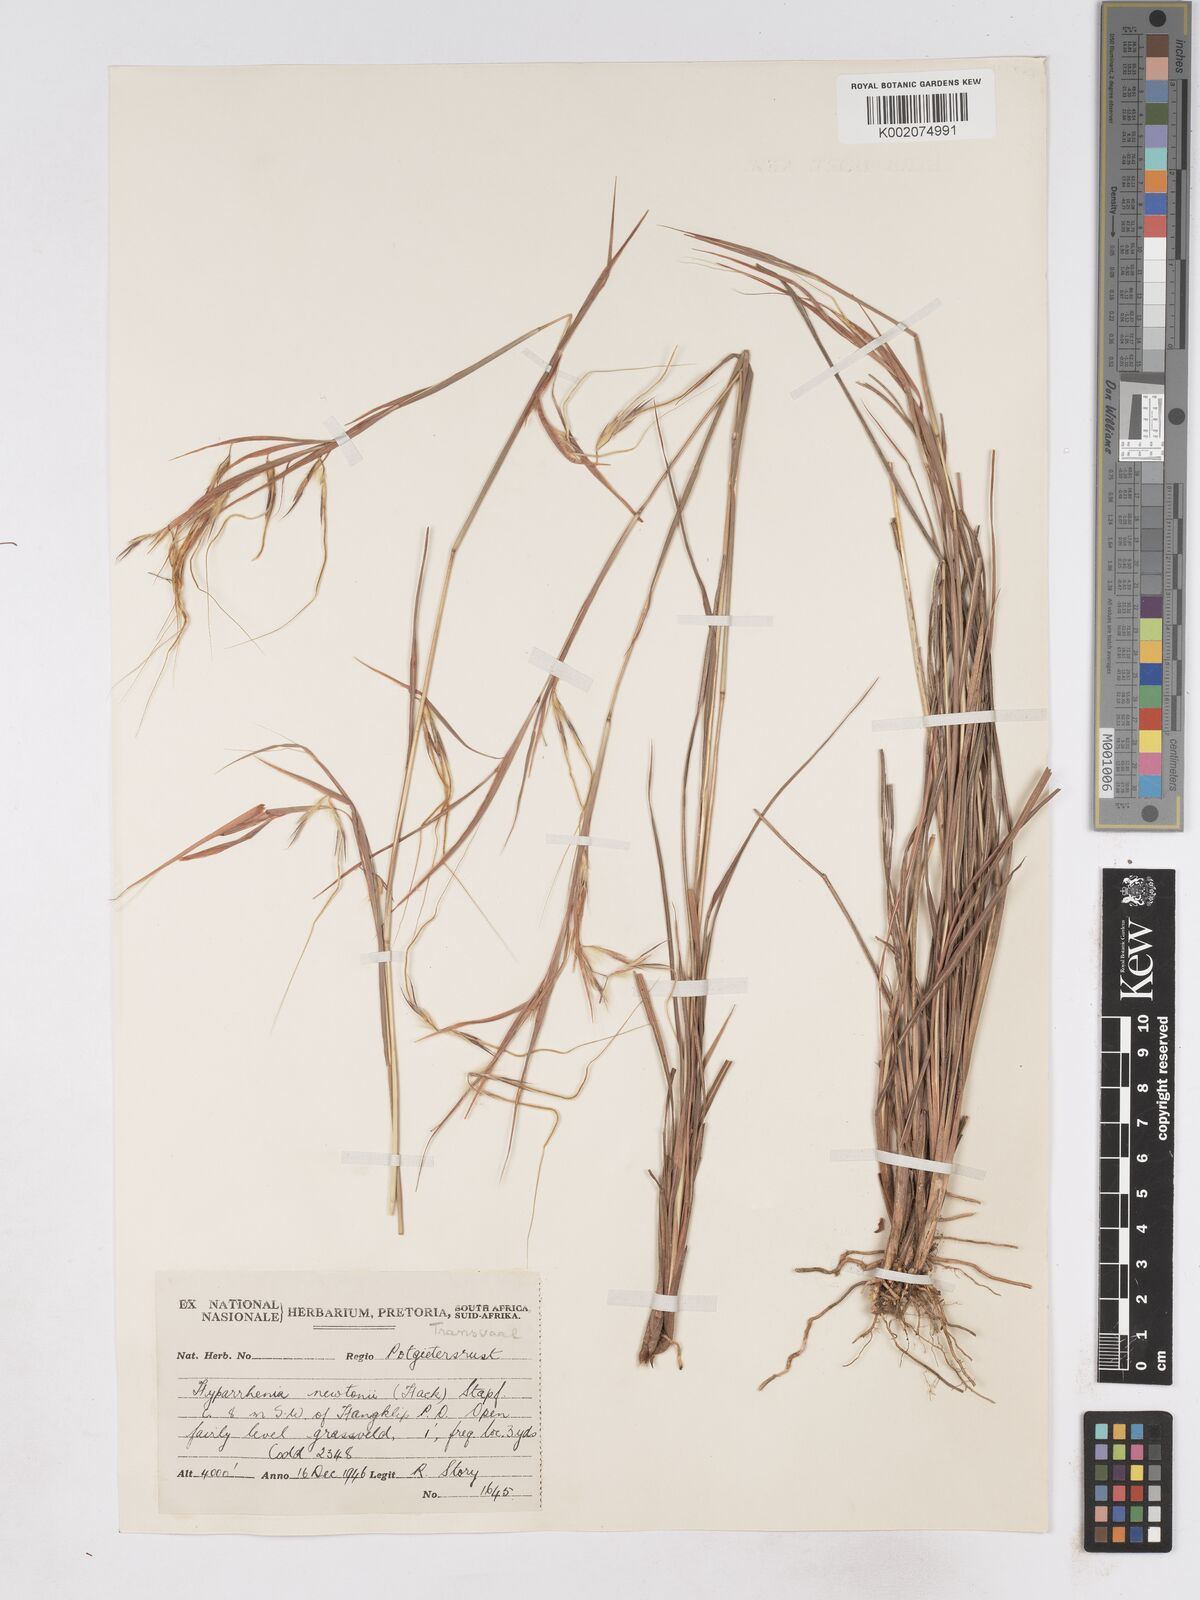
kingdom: Plantae
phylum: Tracheophyta
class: Liliopsida
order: Poales
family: Poaceae
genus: Hyparrhenia
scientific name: Hyparrhenia newtonii
